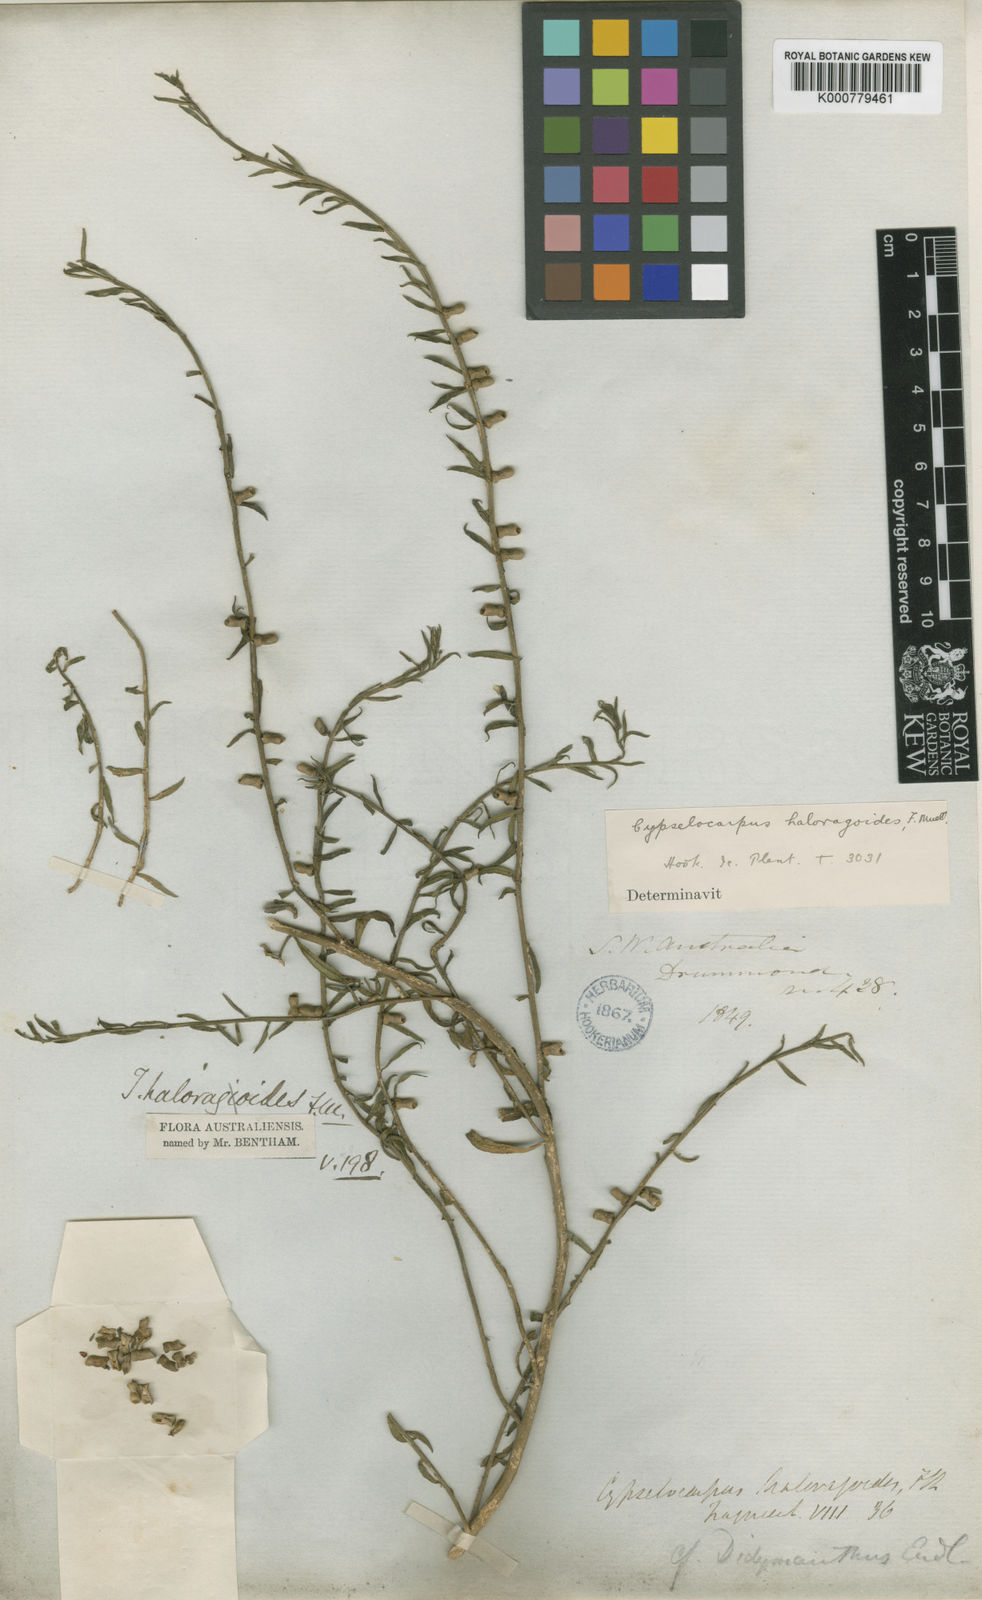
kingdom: Plantae
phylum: Tracheophyta
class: Magnoliopsida
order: Brassicales
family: Gyrostemonaceae
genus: Cypselocarpus
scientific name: Cypselocarpus haloragoides
